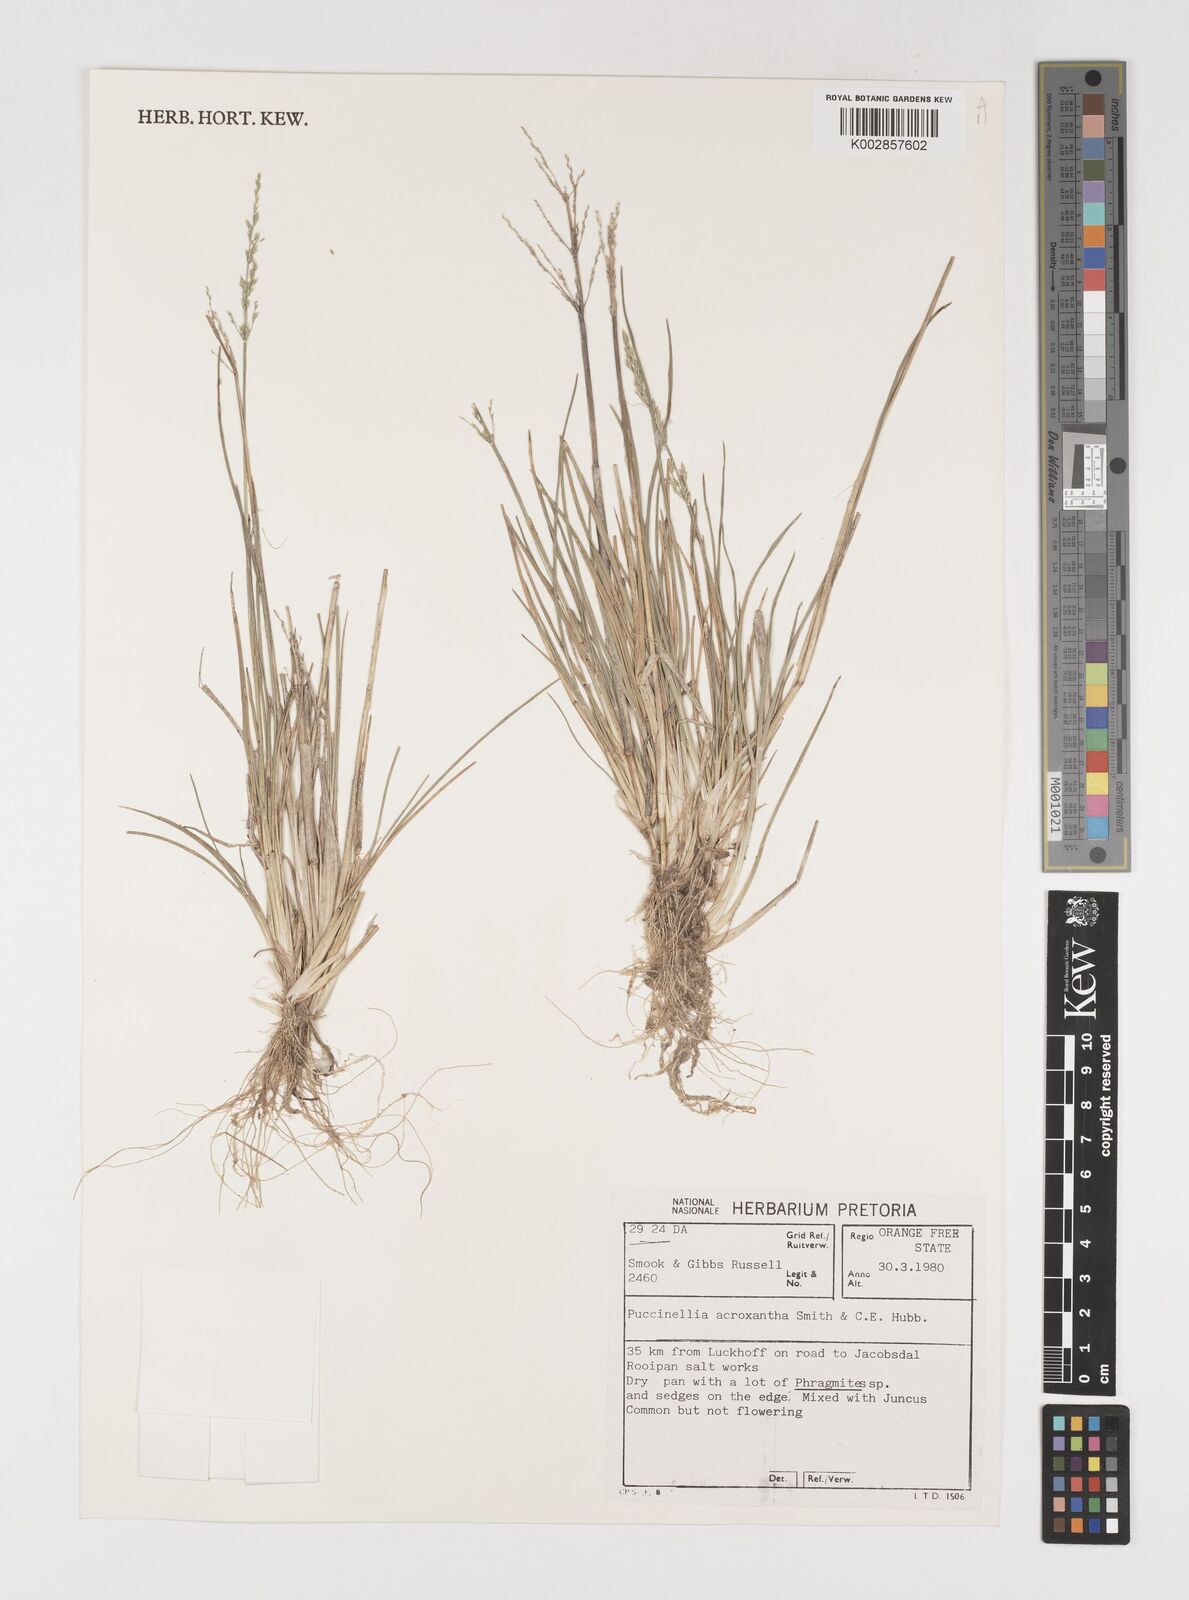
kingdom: Plantae
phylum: Tracheophyta
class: Liliopsida
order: Poales
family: Poaceae
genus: Puccinellia
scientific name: Puccinellia acroxantha
